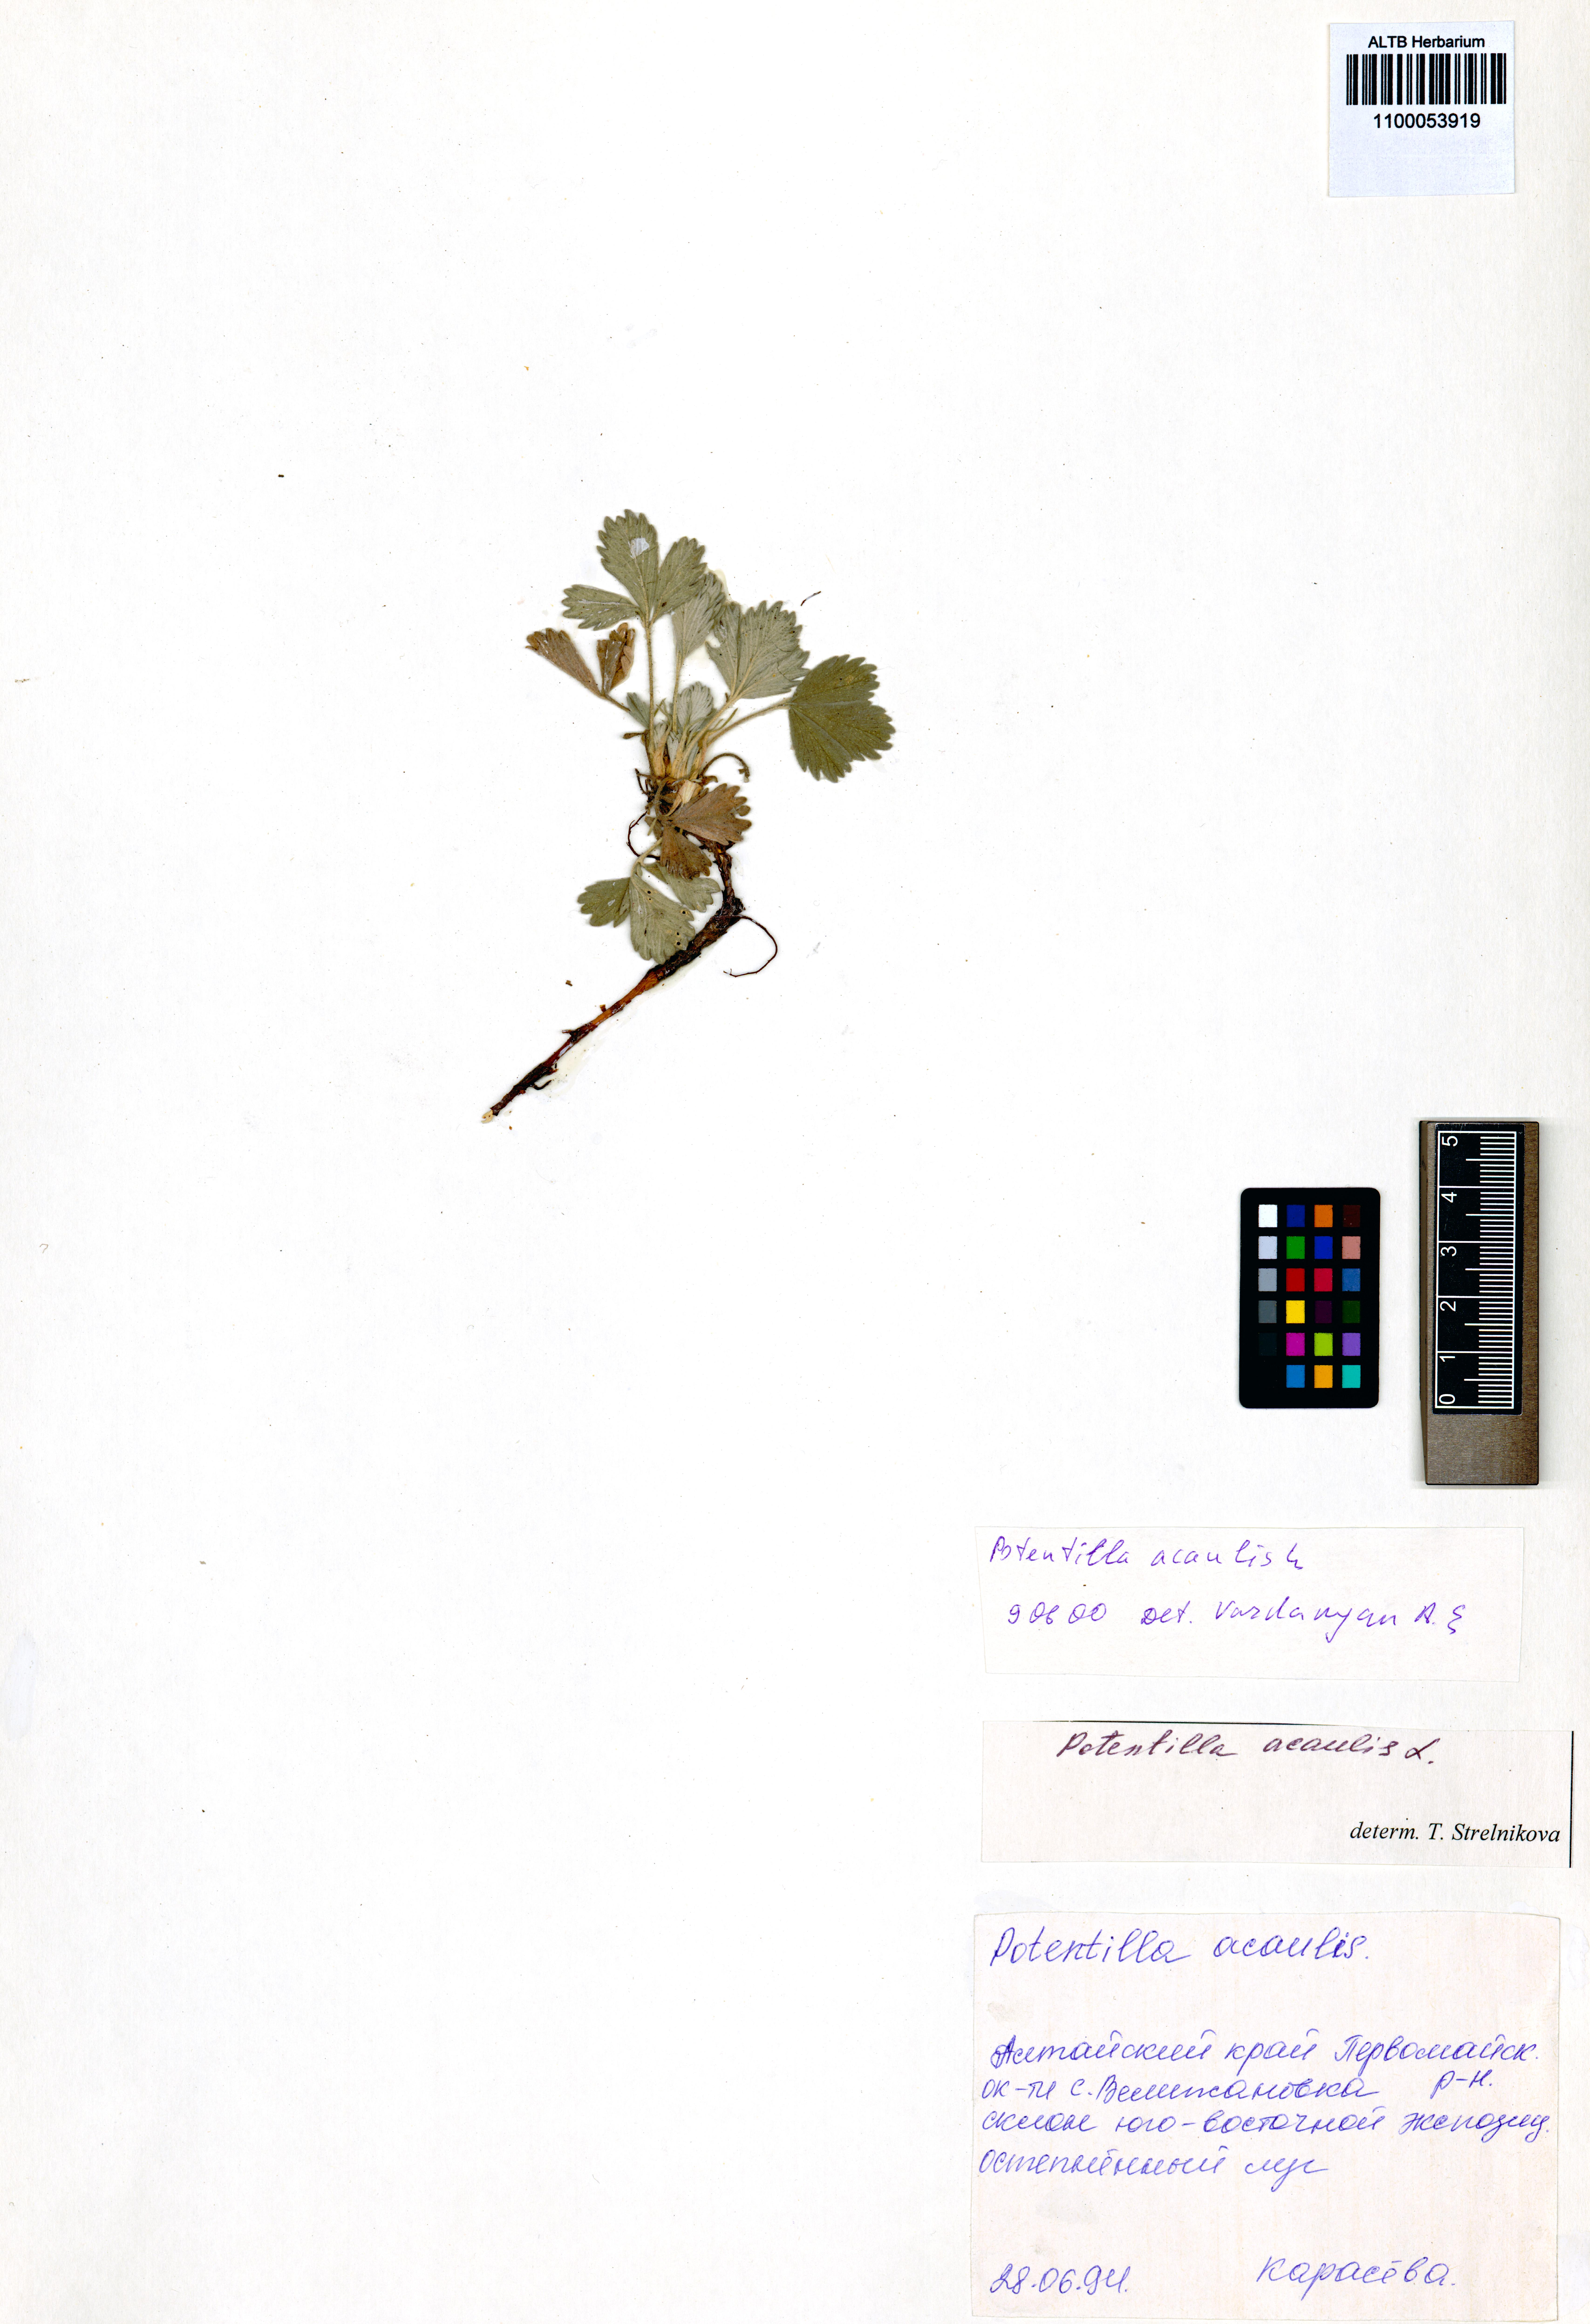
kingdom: Plantae
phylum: Tracheophyta
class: Magnoliopsida
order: Rosales
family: Rosaceae
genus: Potentilla
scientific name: Potentilla acaulis
